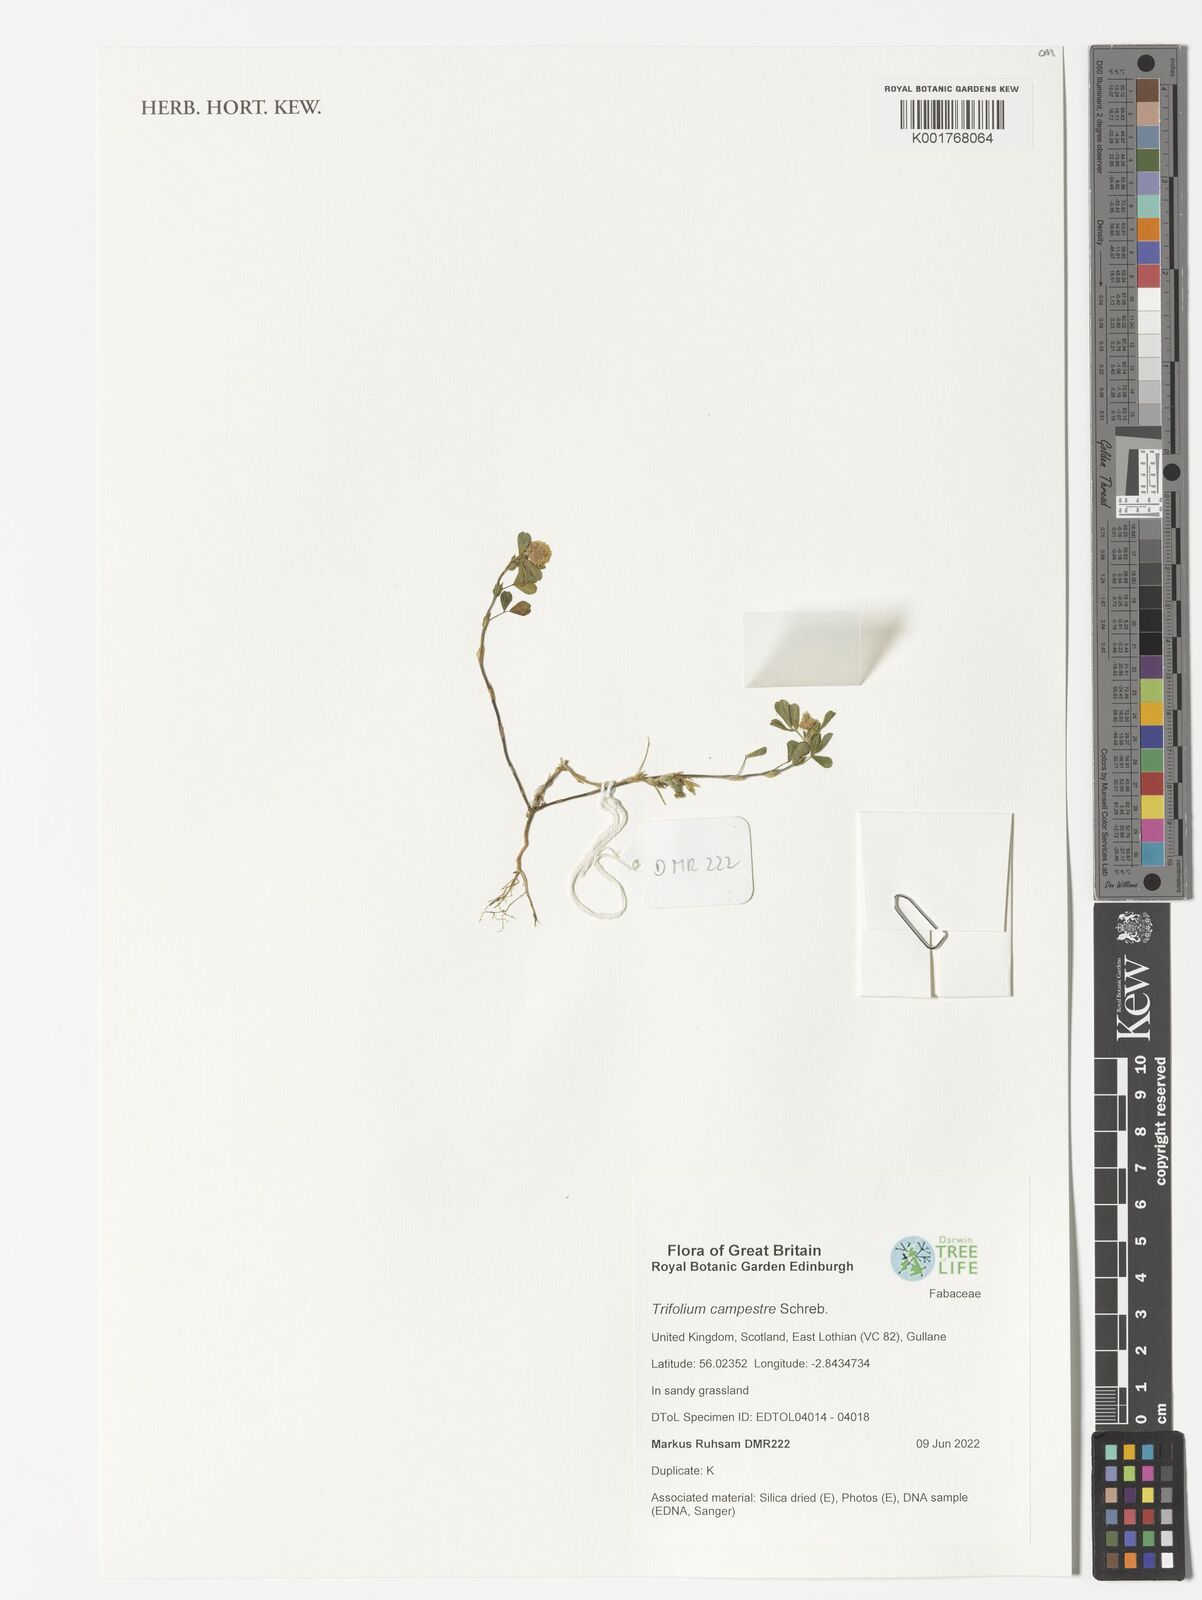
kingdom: Plantae
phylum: Tracheophyta
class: Magnoliopsida
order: Fabales
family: Fabaceae
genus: Trifolium
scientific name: Trifolium campestre
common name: Field clover
